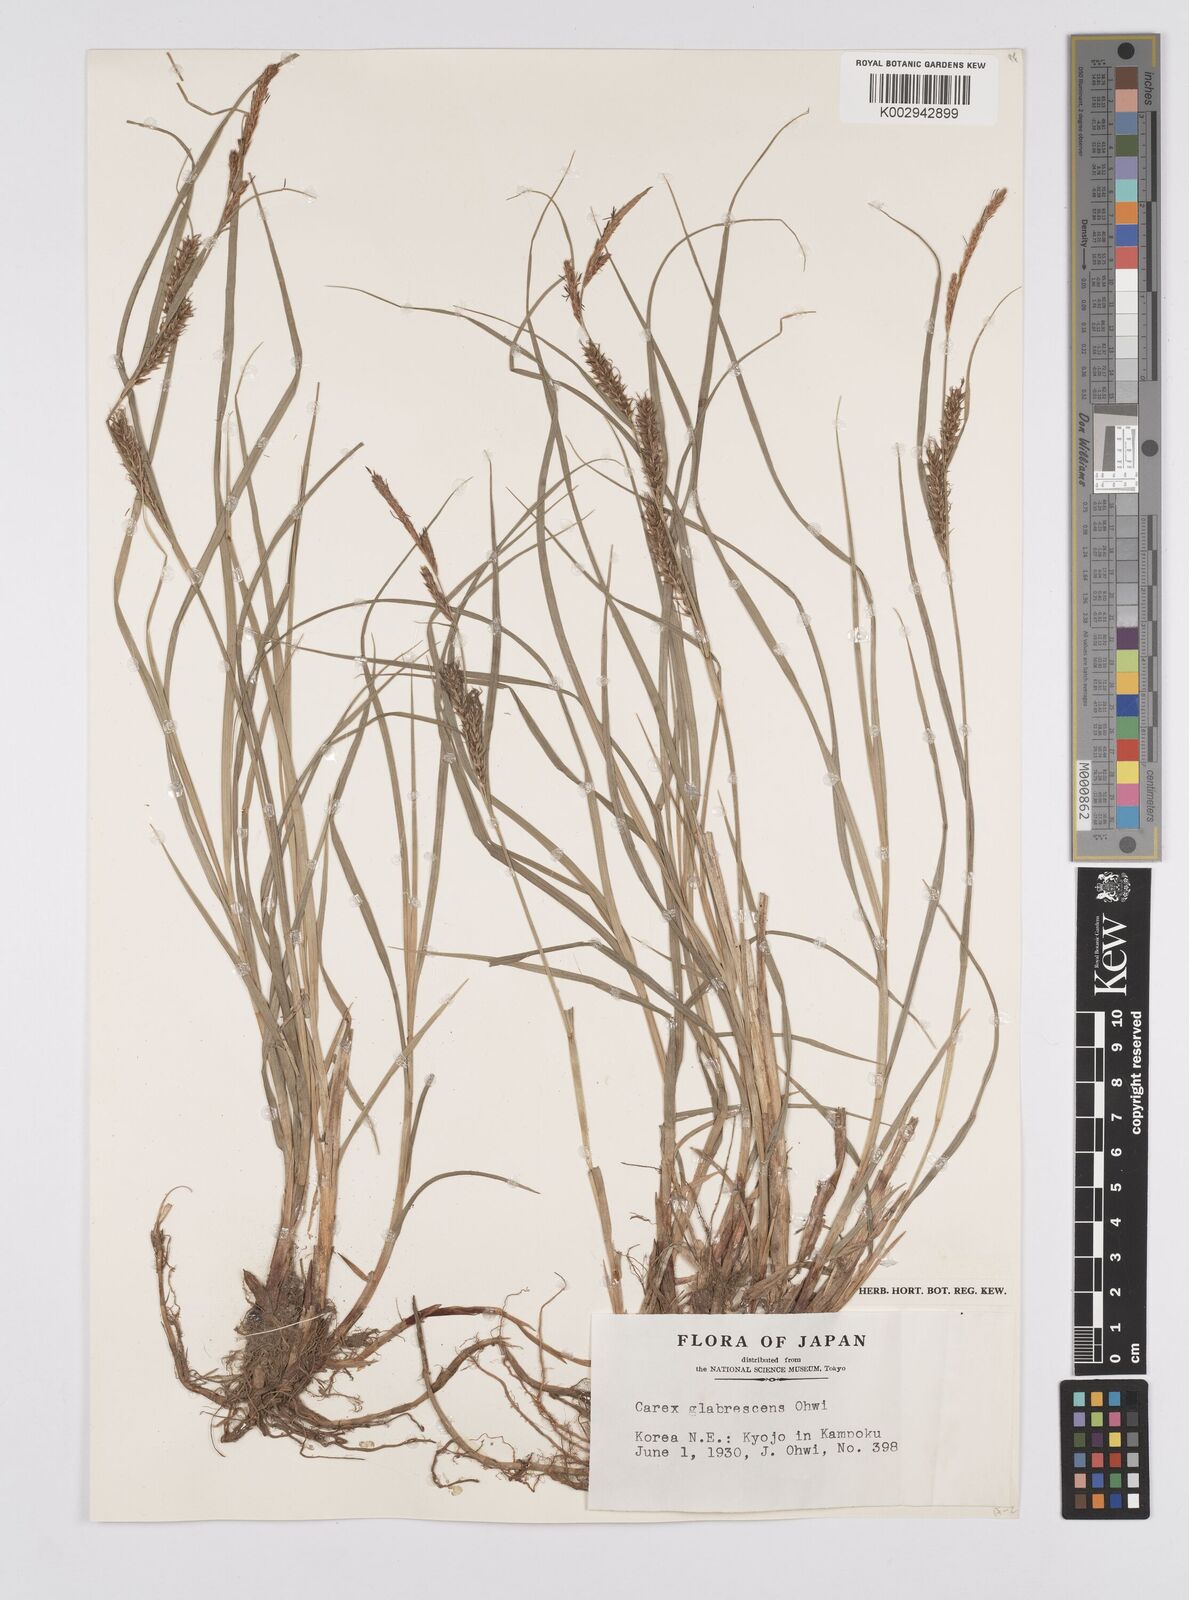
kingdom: Plantae
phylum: Tracheophyta
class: Liliopsida
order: Poales
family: Cyperaceae
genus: Carex
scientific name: Carex glabrescens
